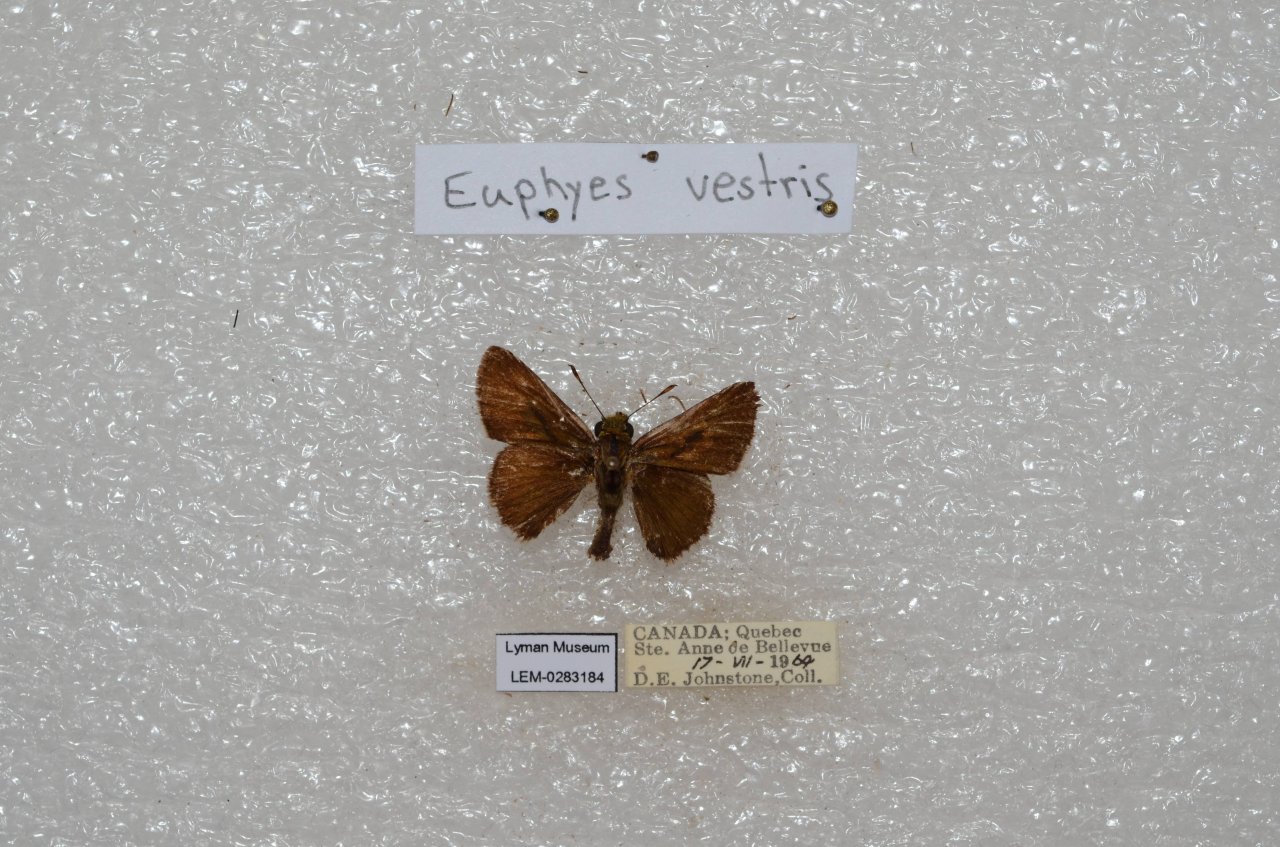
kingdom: Animalia
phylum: Arthropoda
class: Insecta
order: Lepidoptera
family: Hesperiidae
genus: Euphyes
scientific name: Euphyes vestris
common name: Dun Skipper
